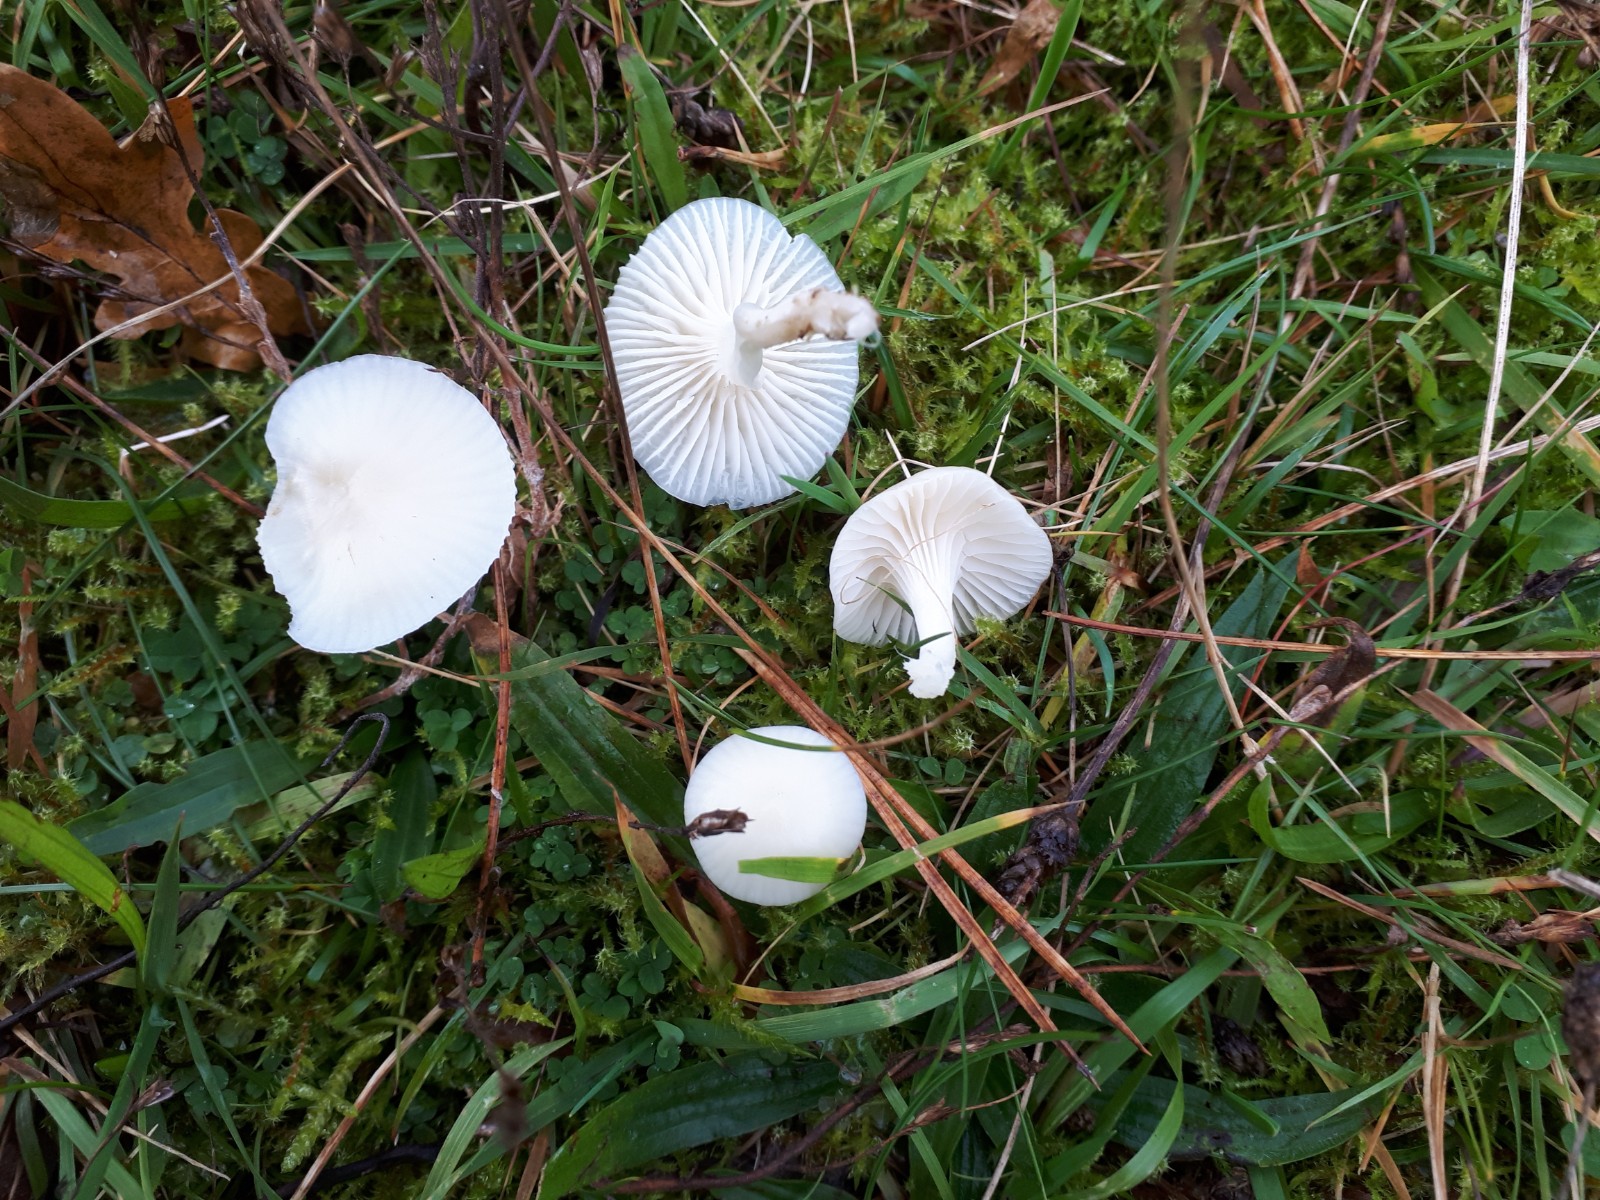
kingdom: Fungi
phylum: Basidiomycota
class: Agaricomycetes
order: Agaricales
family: Hygrophoraceae
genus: Cuphophyllus
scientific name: Cuphophyllus virgineus
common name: snehvid vokshat
